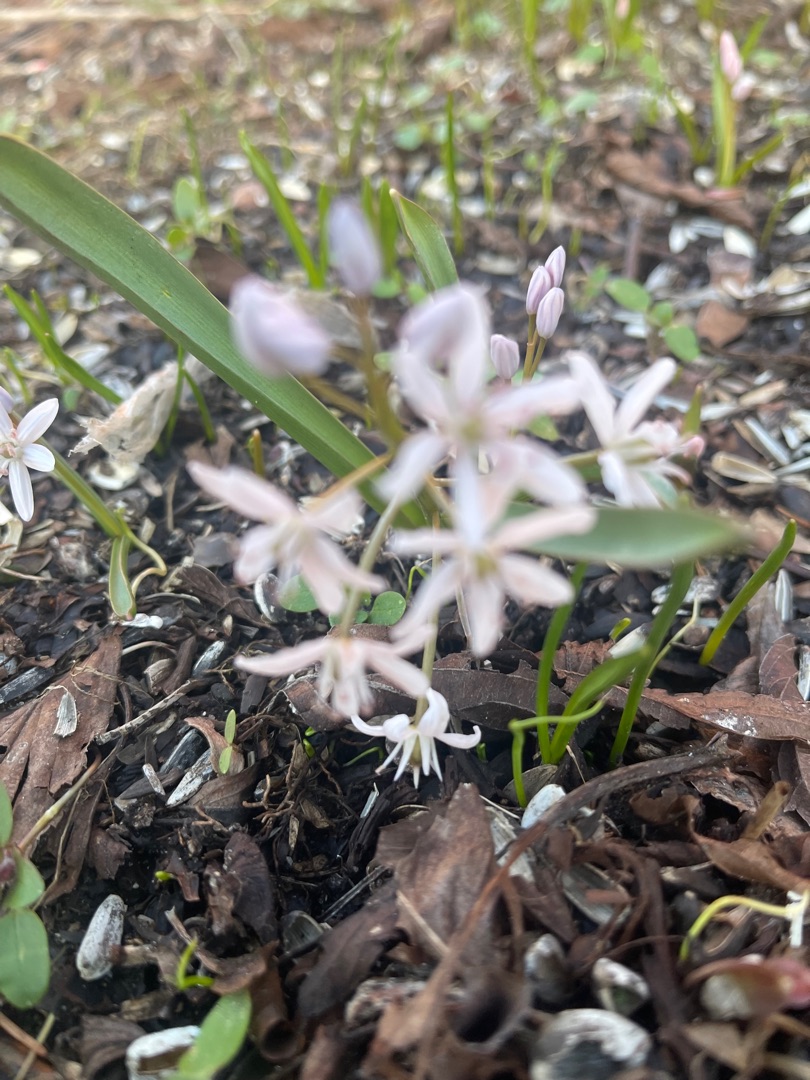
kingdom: Plantae
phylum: Tracheophyta
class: Liliopsida
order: Asparagales
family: Asparagaceae
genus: Scilla
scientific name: Scilla bifolia
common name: Tobladet skilla
